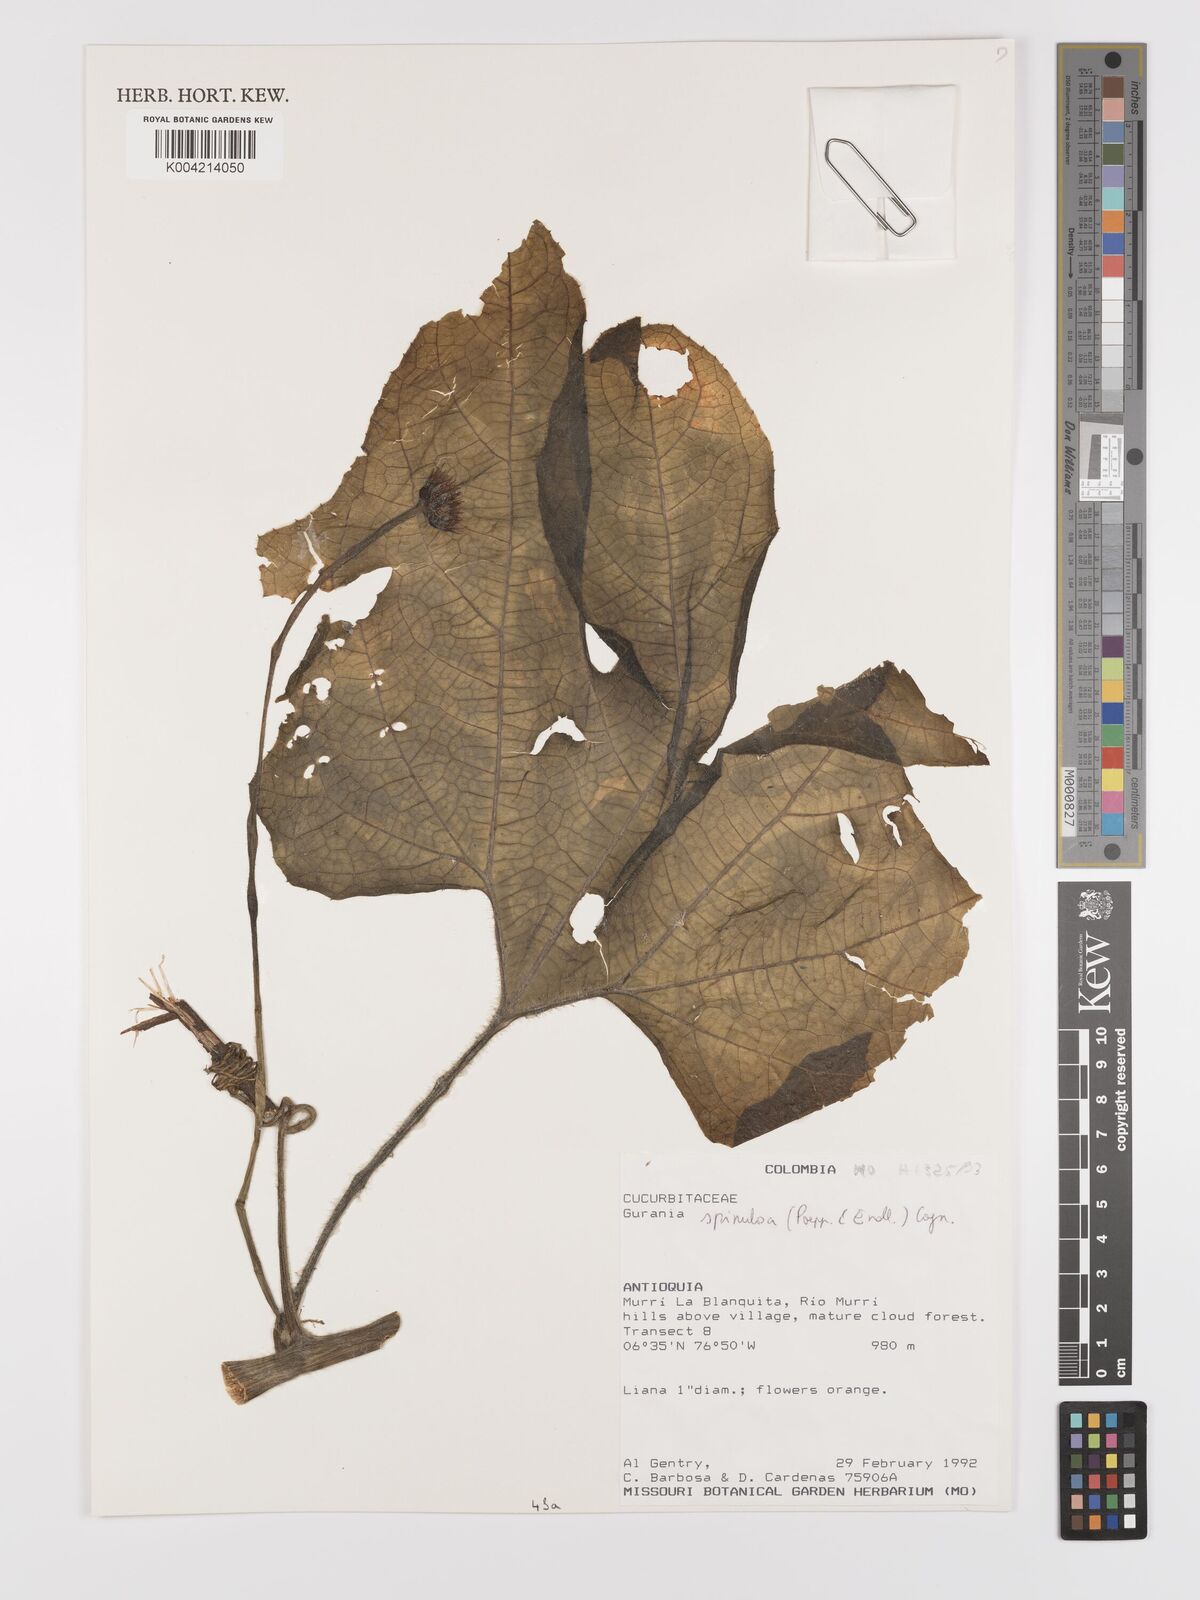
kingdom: Plantae
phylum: Tracheophyta
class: Magnoliopsida
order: Cucurbitales
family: Cucurbitaceae
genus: Gurania
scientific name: Gurania lobata
